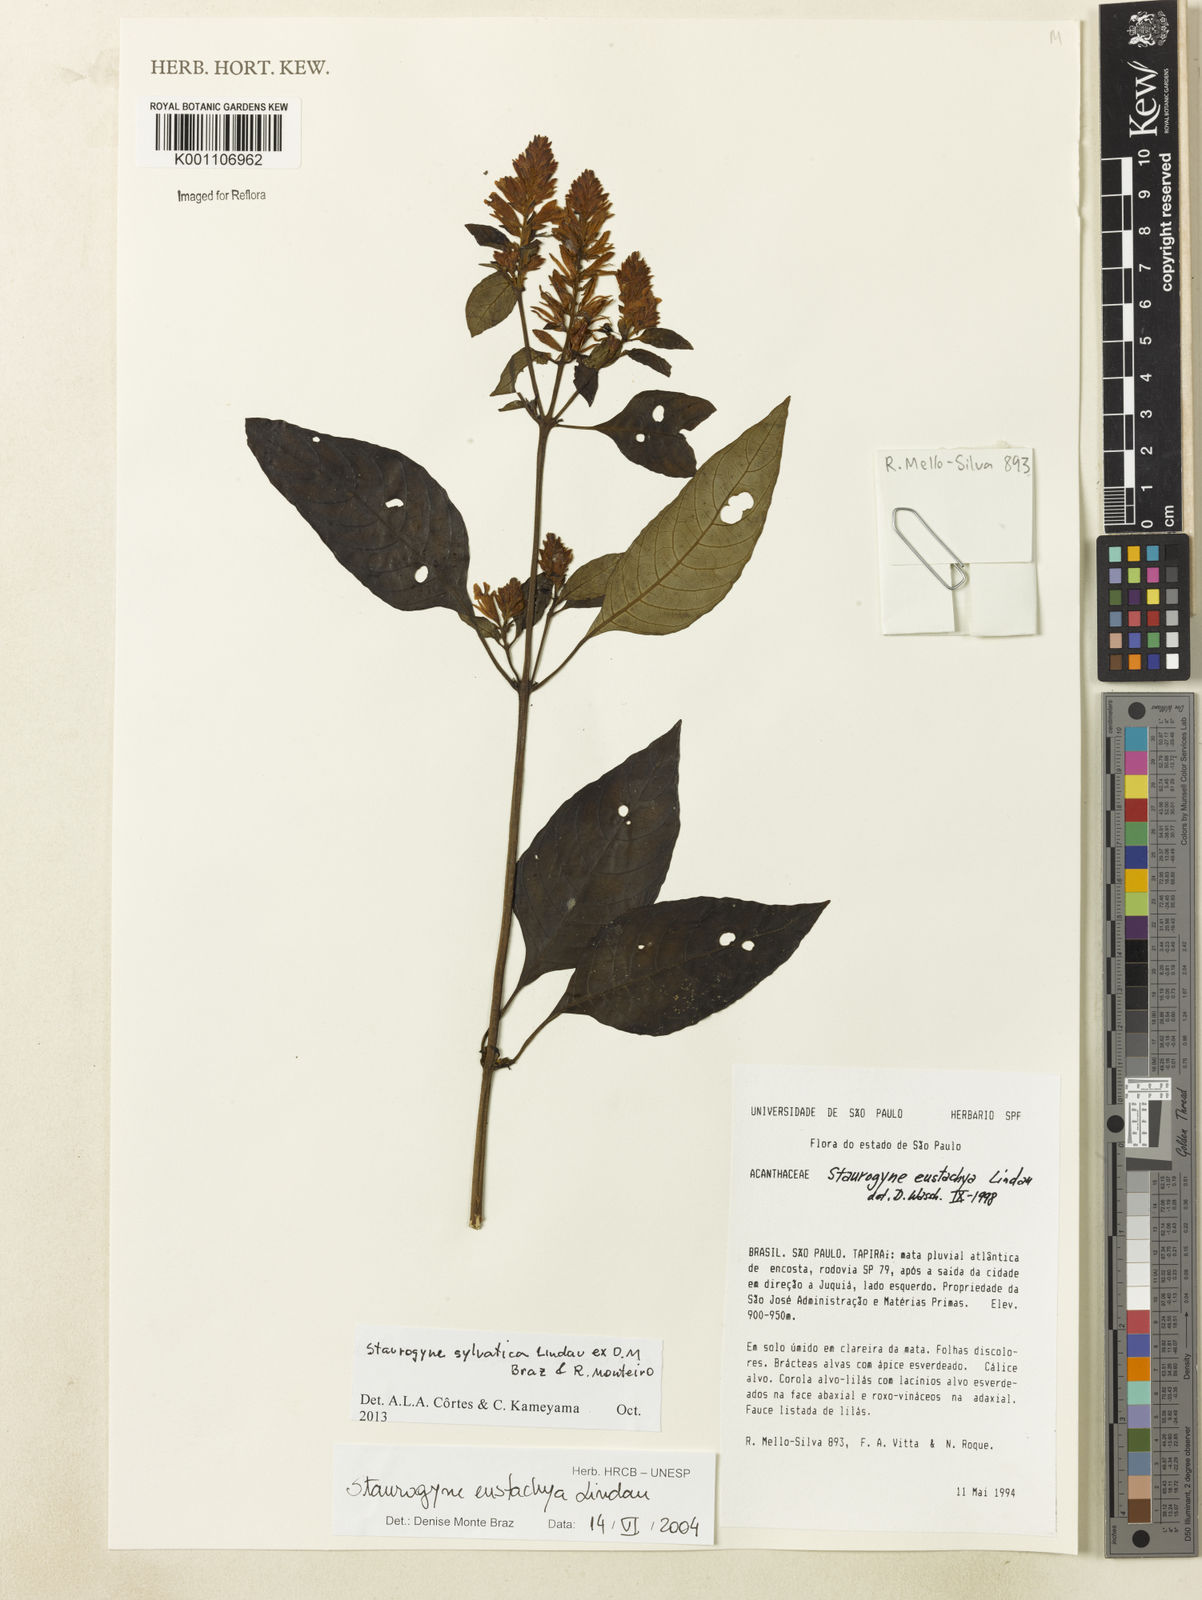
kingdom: Plantae
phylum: Tracheophyta
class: Magnoliopsida
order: Lamiales
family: Acanthaceae
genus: Staurogyne
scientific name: Staurogyne sylvatica
